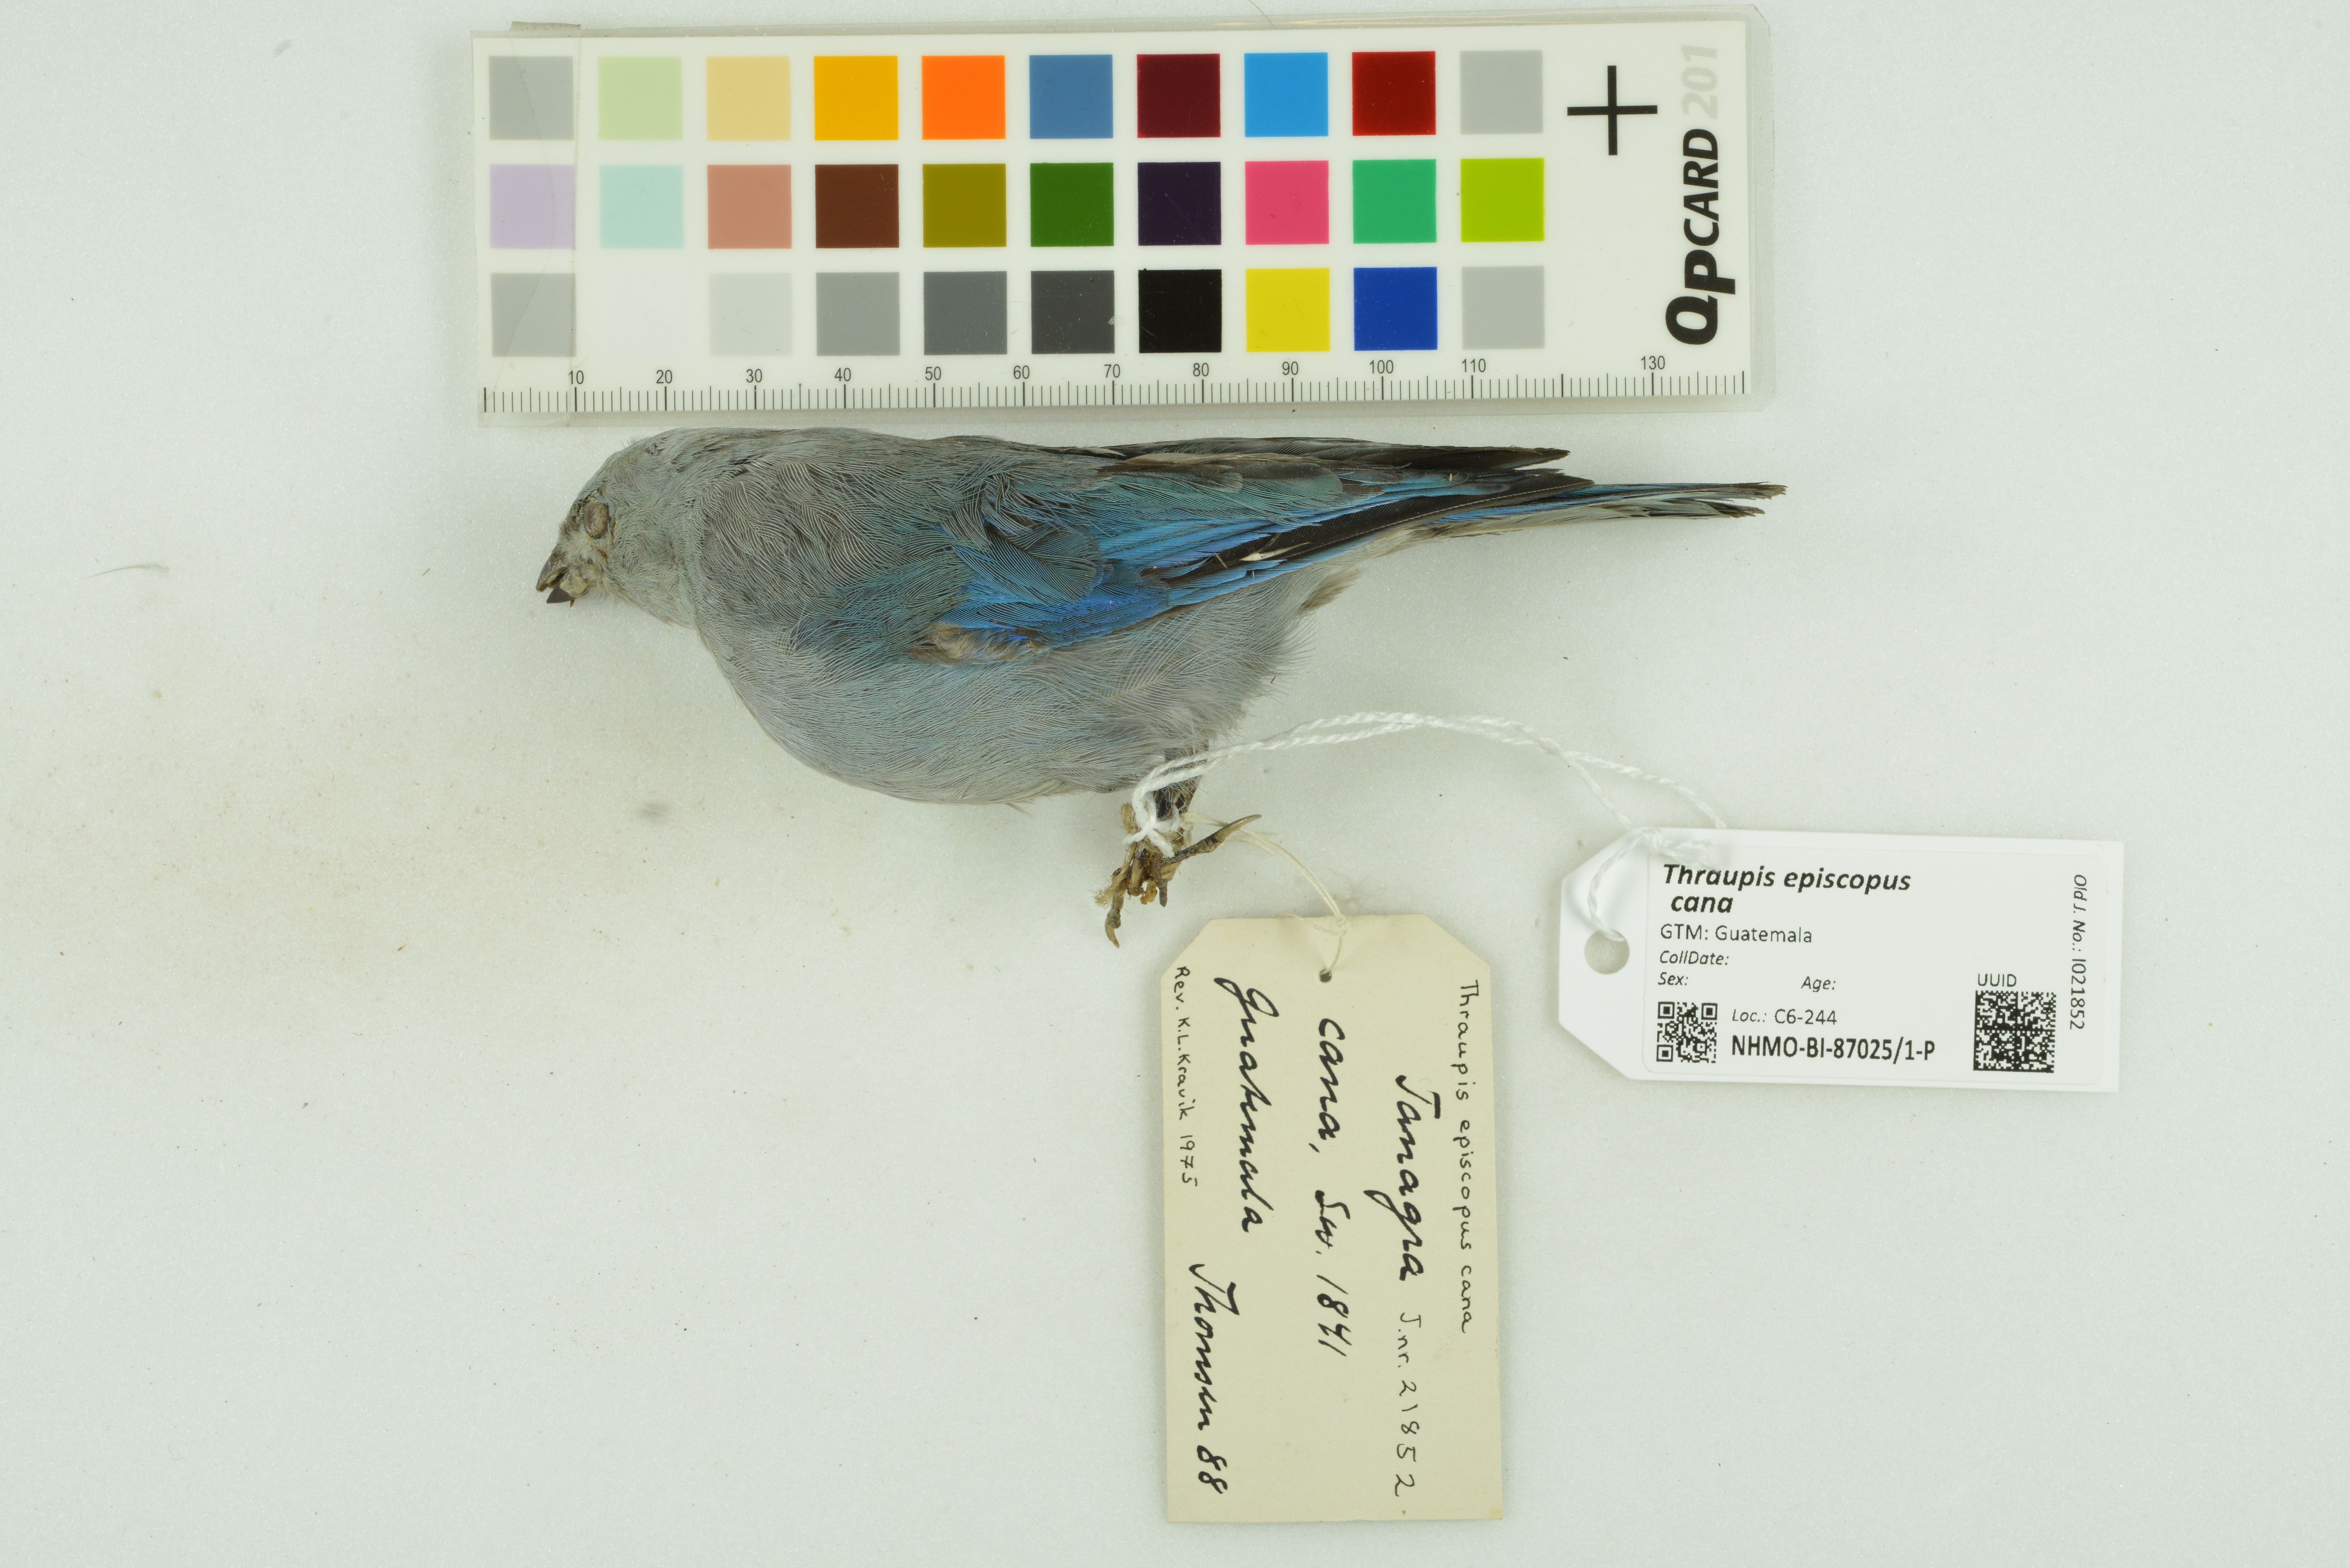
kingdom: Animalia
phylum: Chordata
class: Aves
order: Passeriformes
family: Thraupidae
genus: Thraupis
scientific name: Thraupis episcopus
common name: Blue-grey tanager
